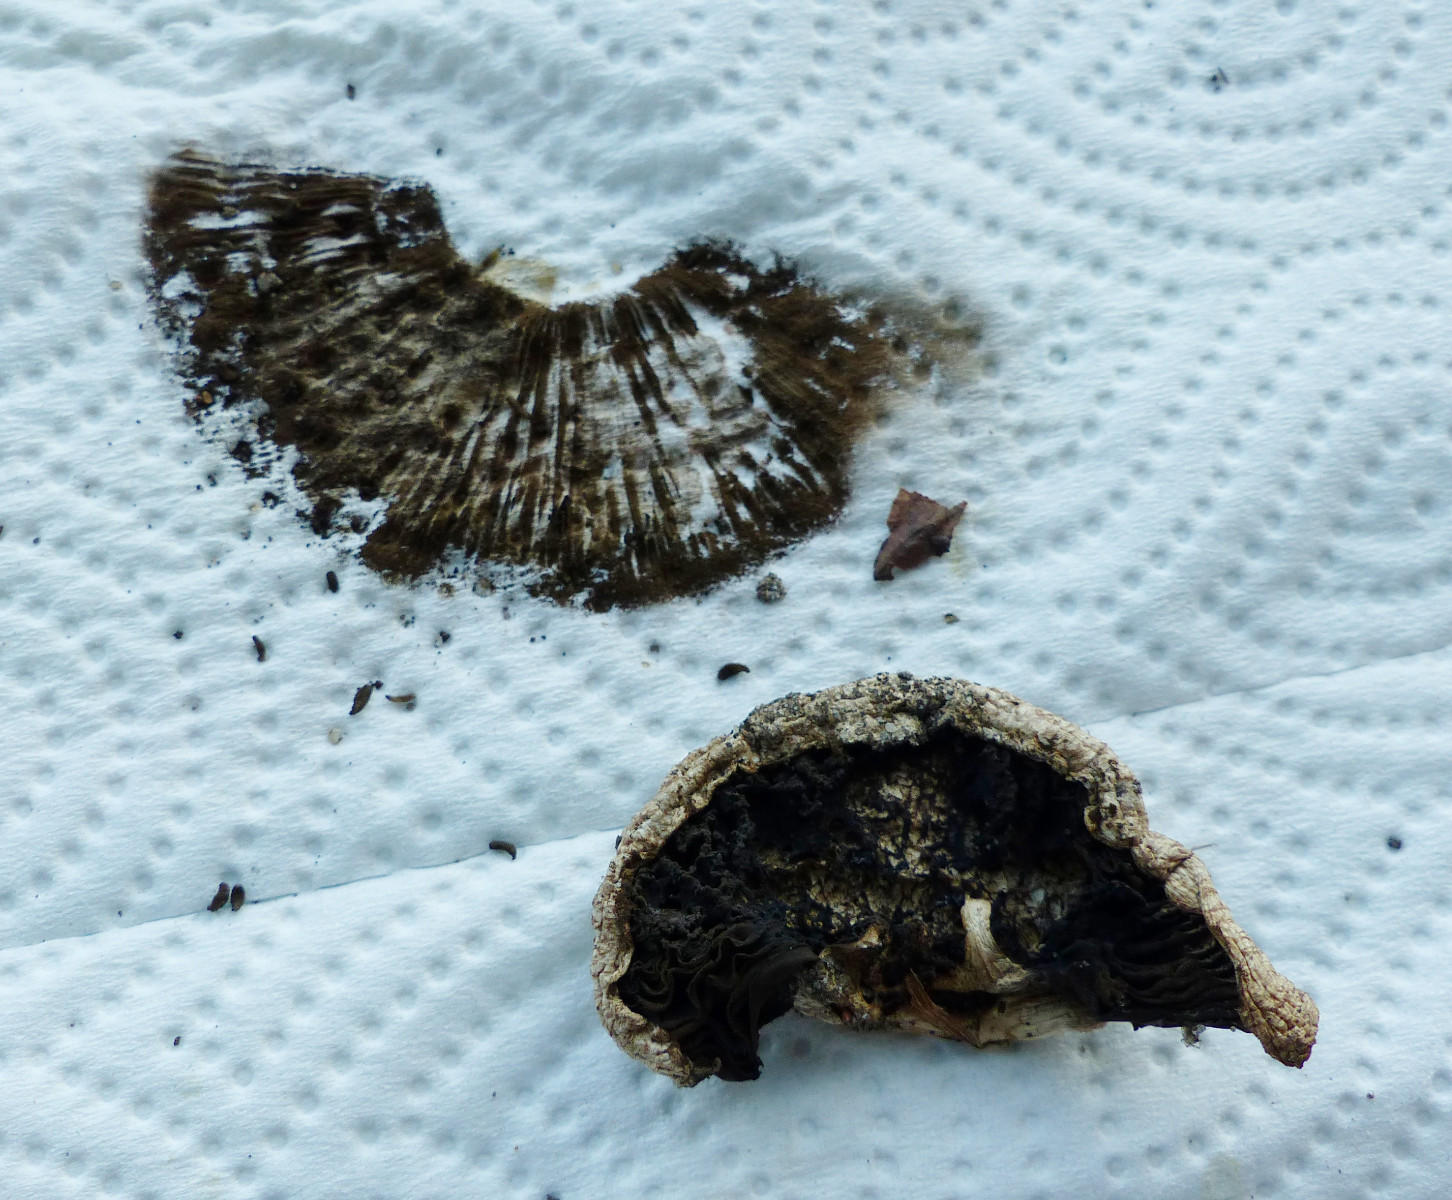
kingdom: Fungi
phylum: Basidiomycota
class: Agaricomycetes
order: Agaricales
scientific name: Agaricales
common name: champignonordenen
